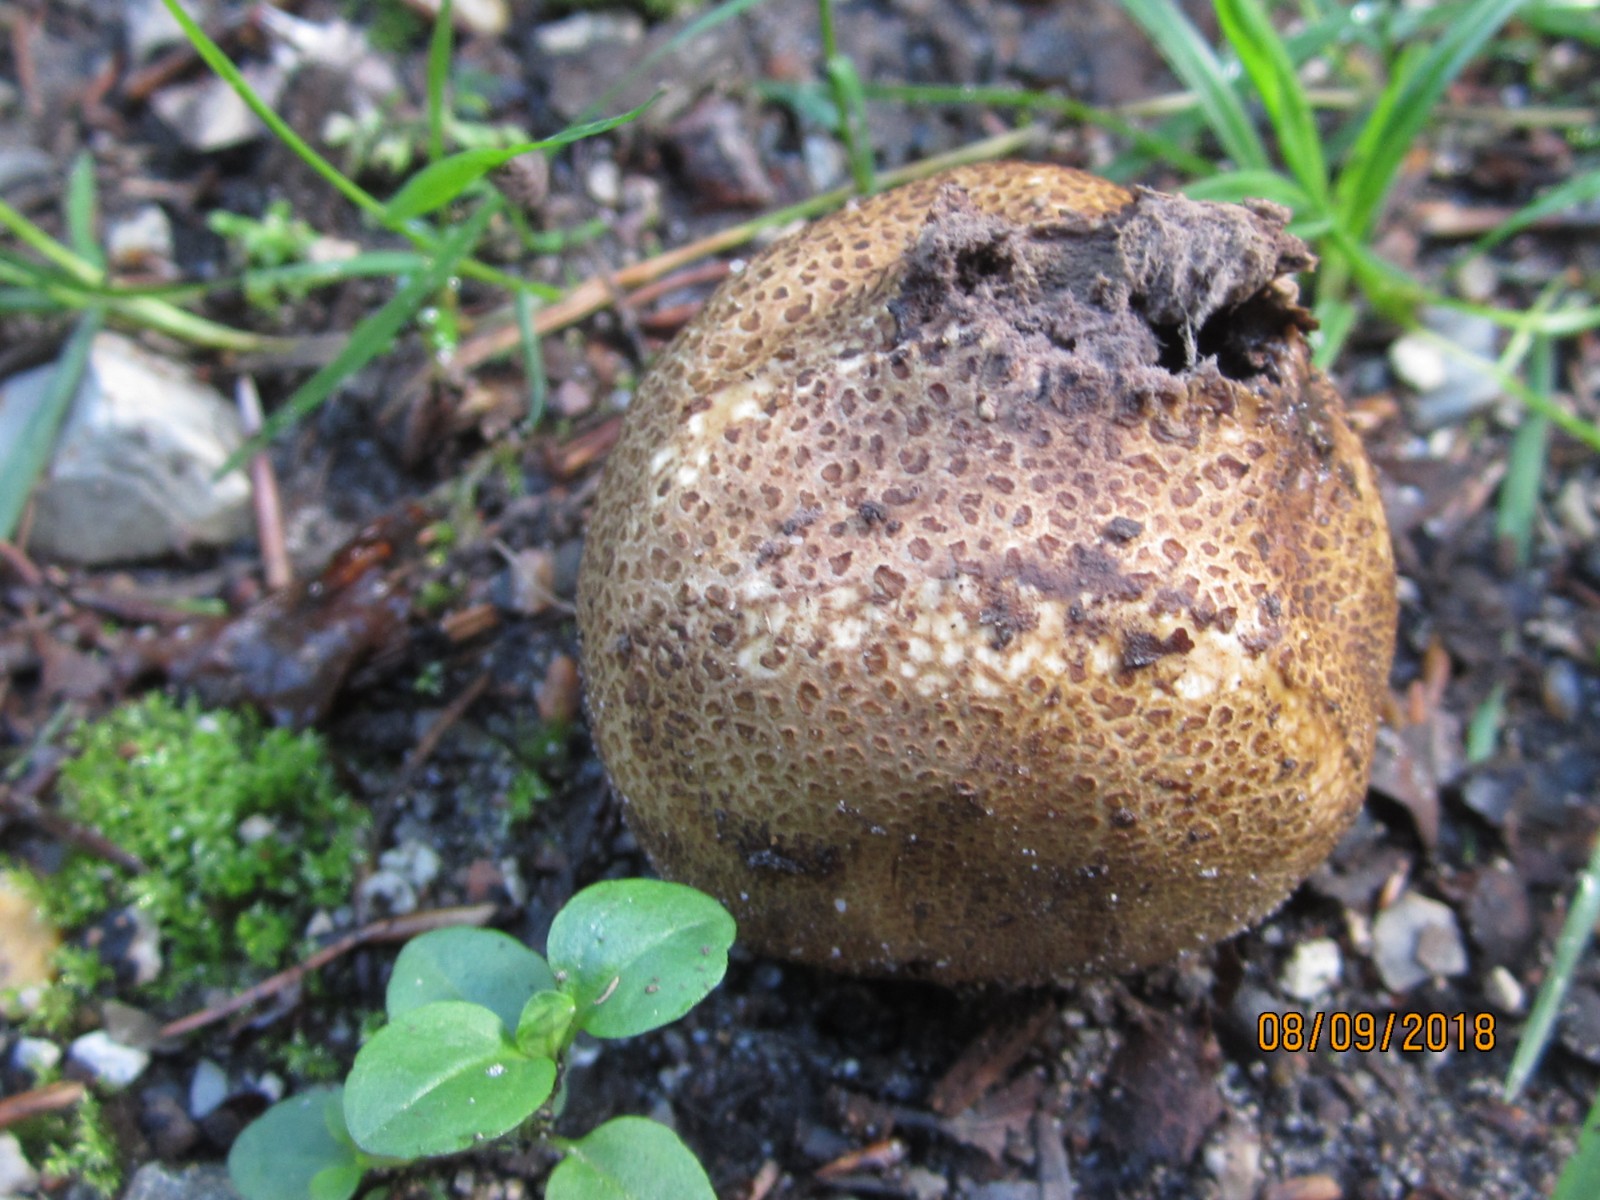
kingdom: Fungi
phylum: Basidiomycota
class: Agaricomycetes
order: Boletales
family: Sclerodermataceae
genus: Scleroderma
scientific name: Scleroderma citrinum
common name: almindelig bruskbold
